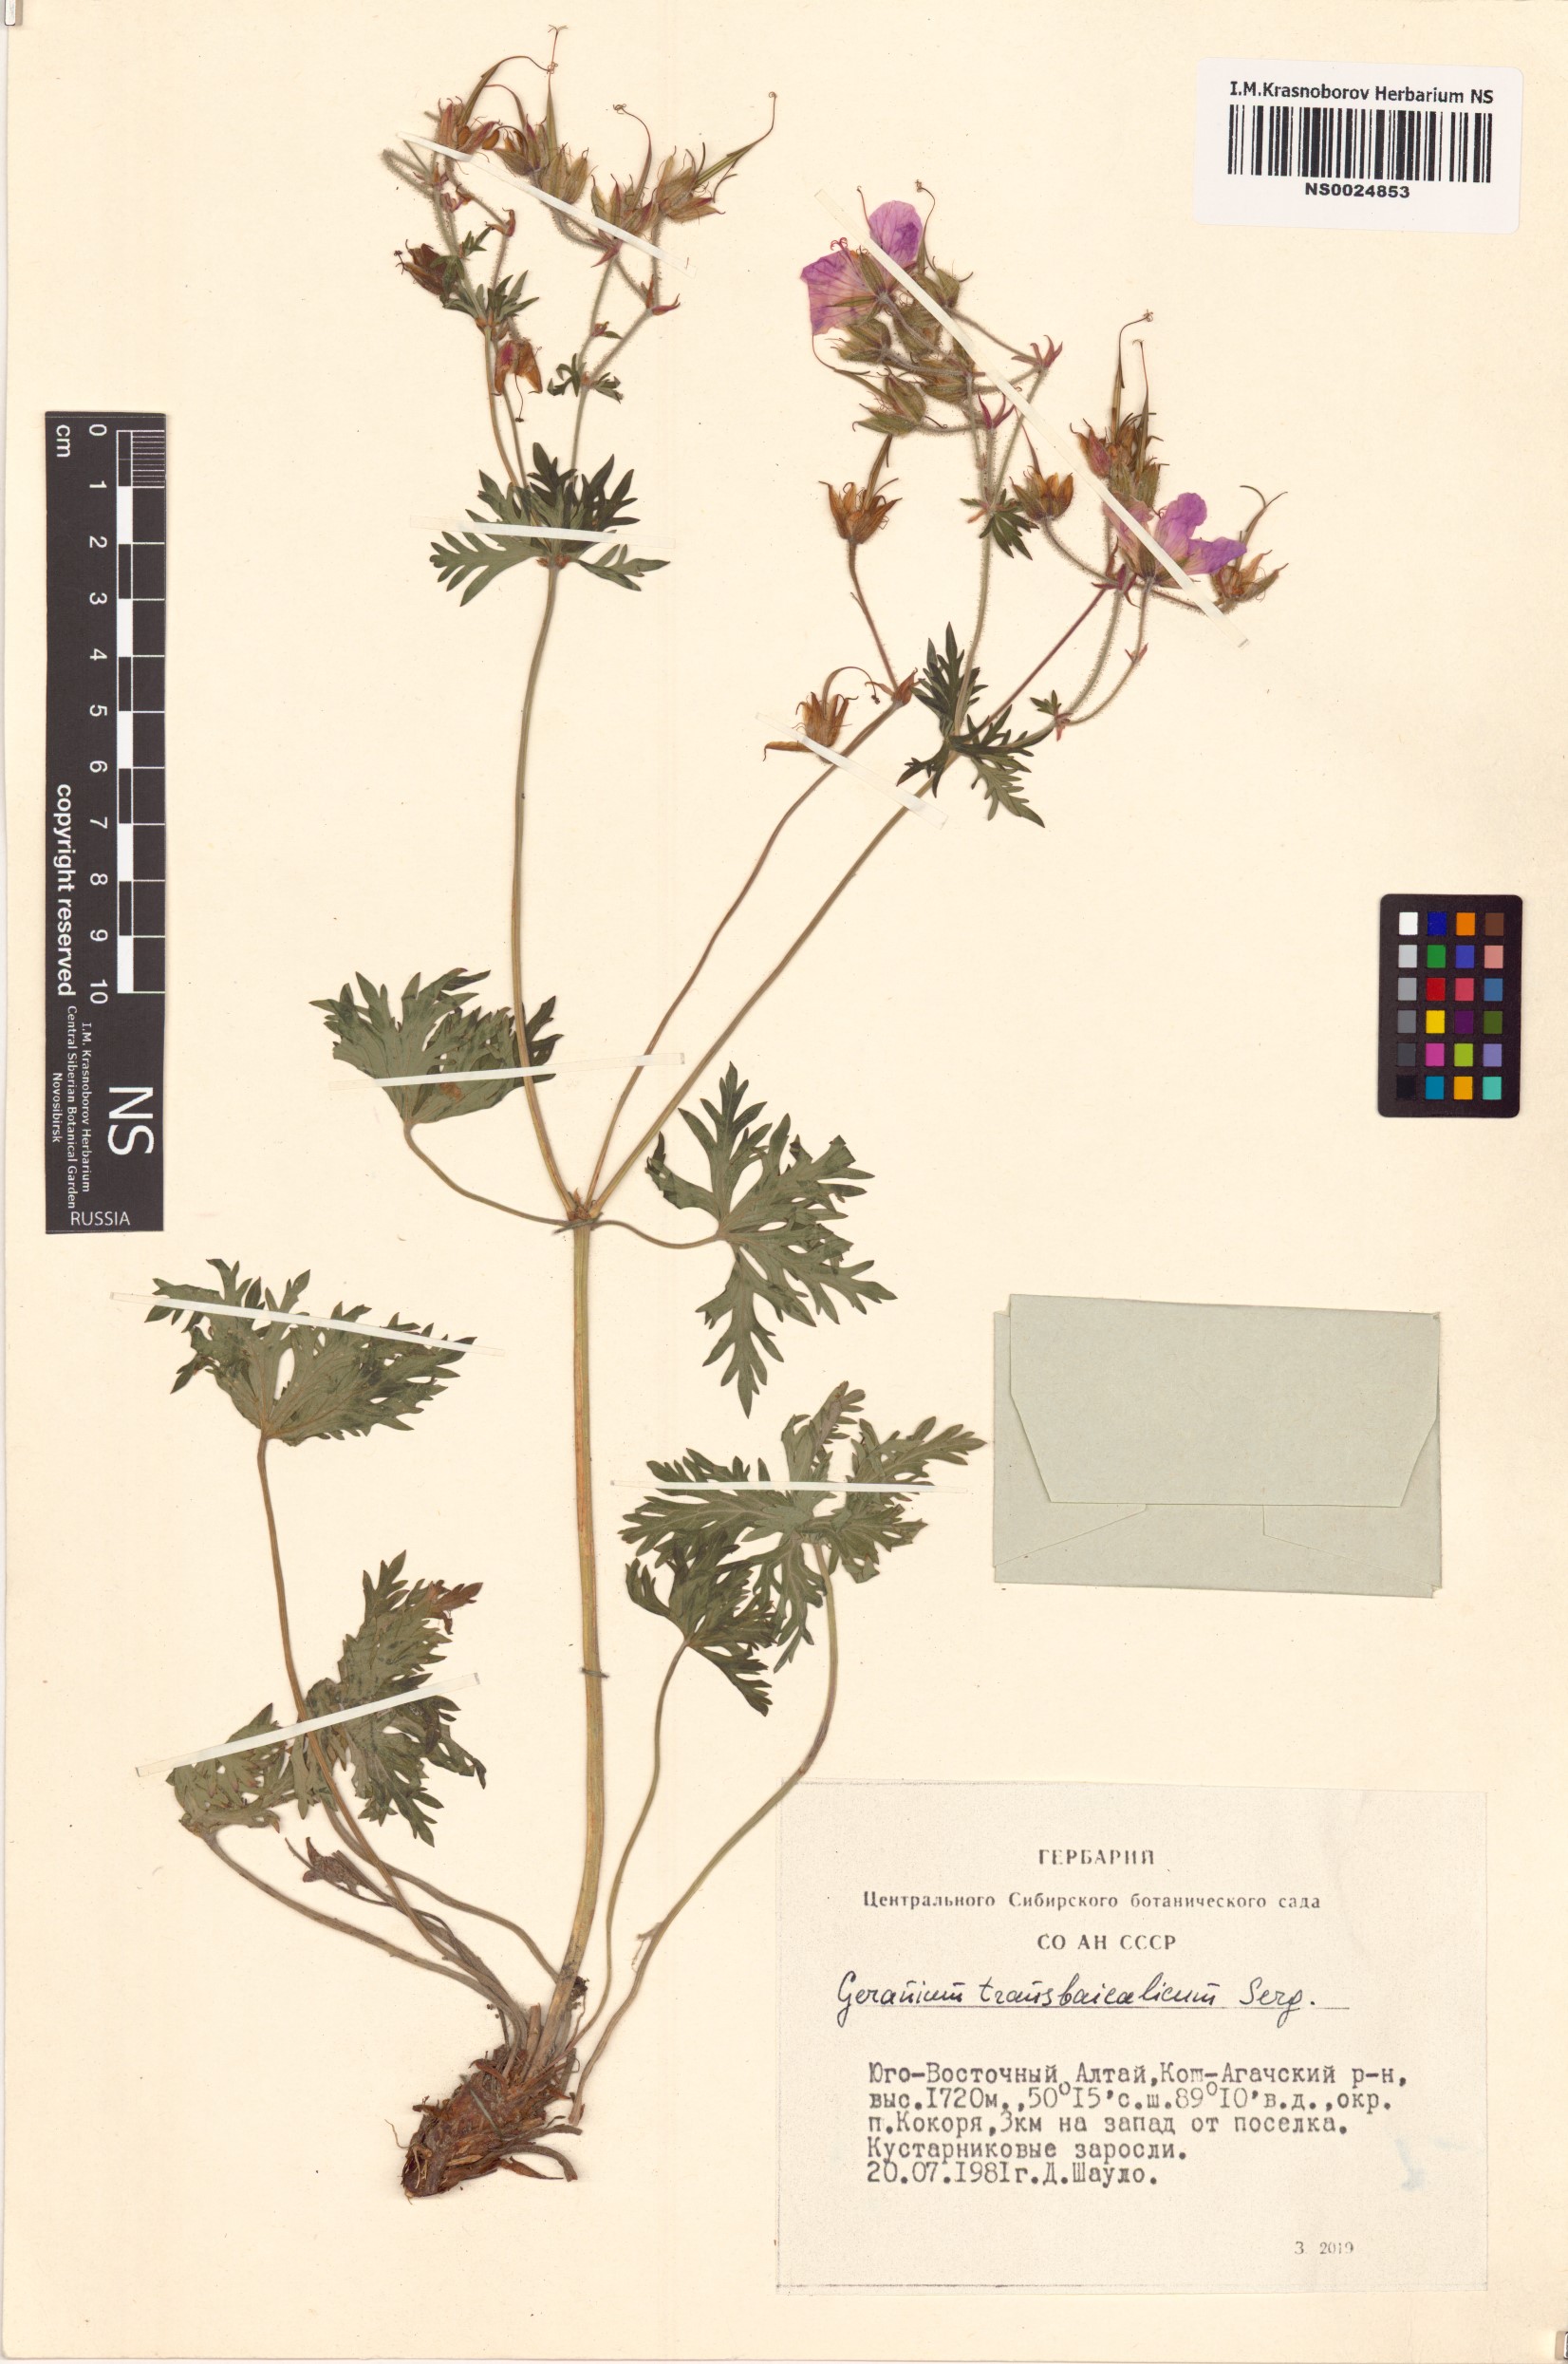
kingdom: Plantae
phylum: Tracheophyta
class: Magnoliopsida
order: Geraniales
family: Geraniaceae
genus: Geranium
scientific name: Geranium pratense
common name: Meadow crane's-bill
